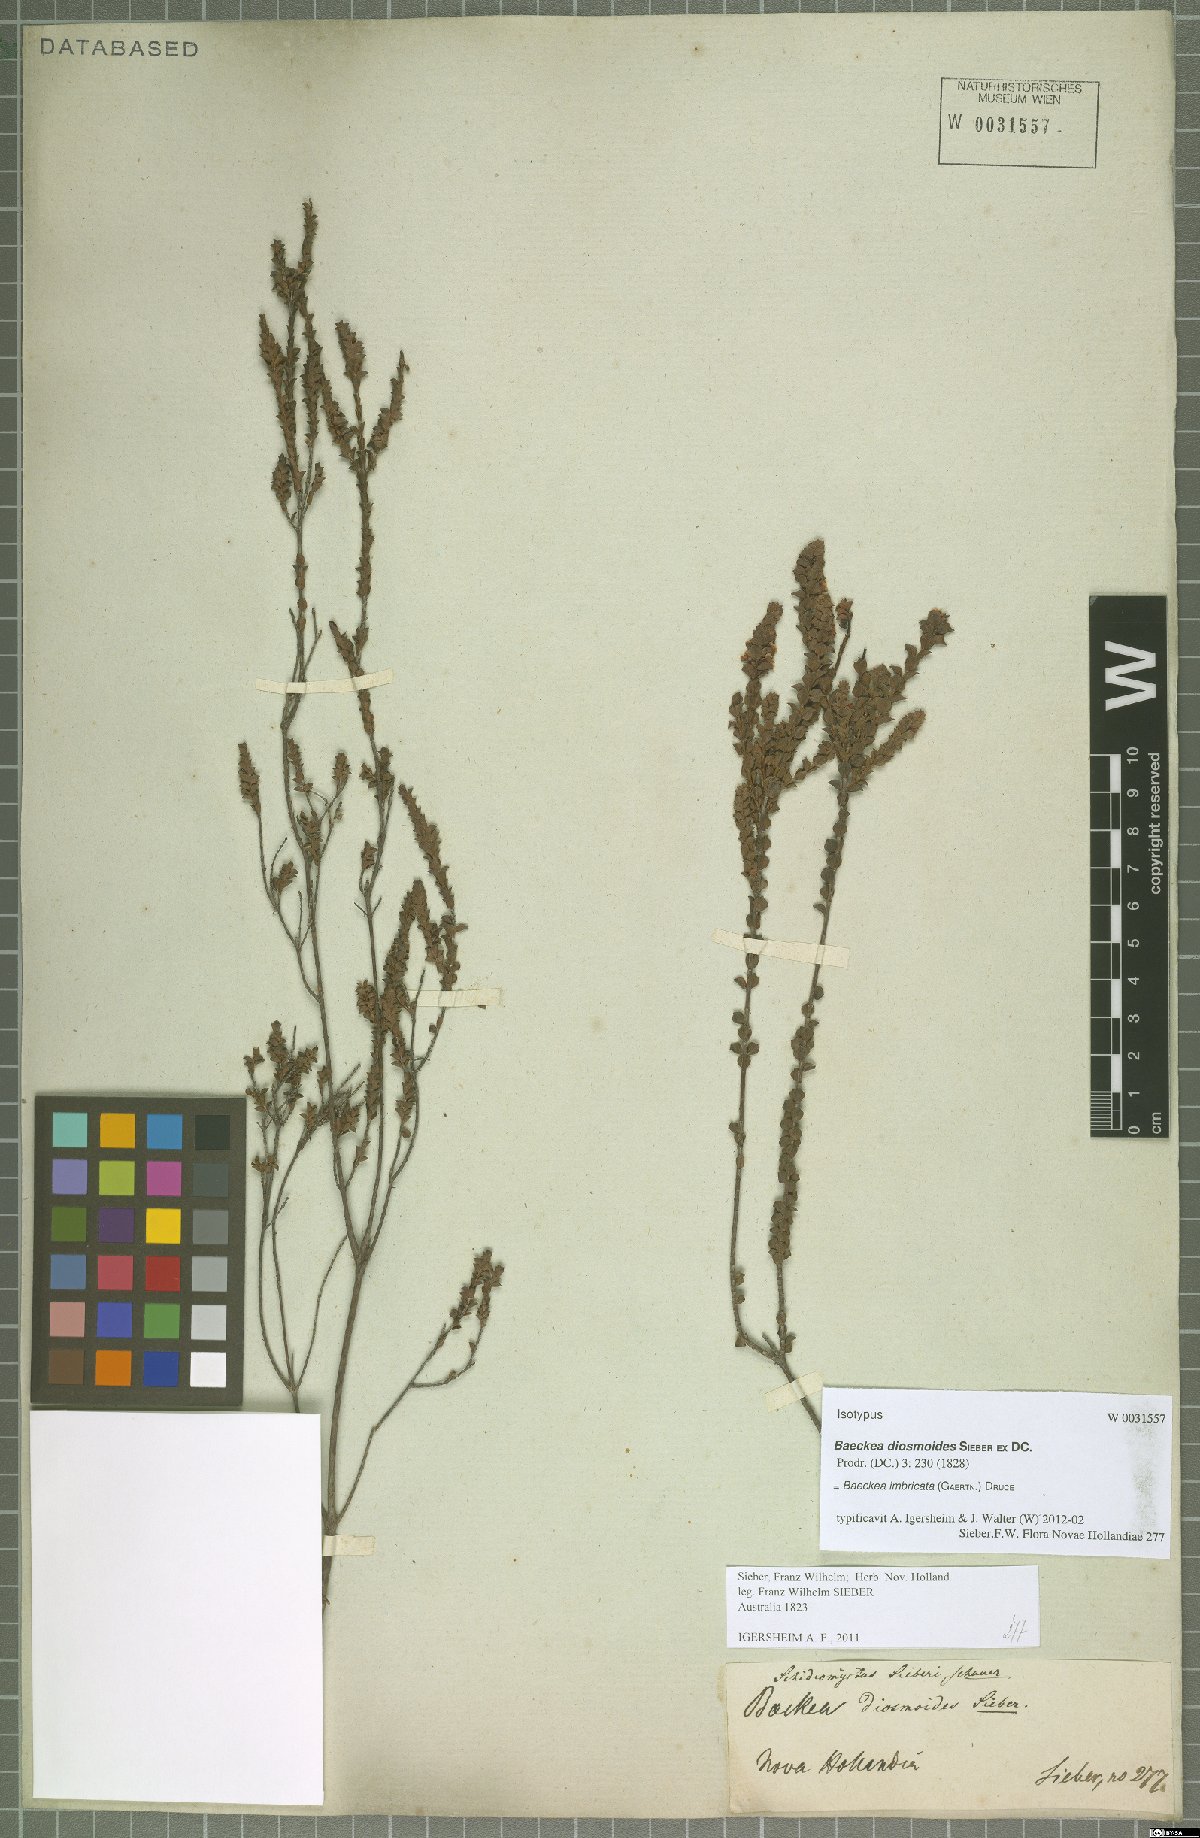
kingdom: Plantae
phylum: Tracheophyta
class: Magnoliopsida
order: Myrtales
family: Myrtaceae
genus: Baeckea
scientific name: Baeckea imbricata
